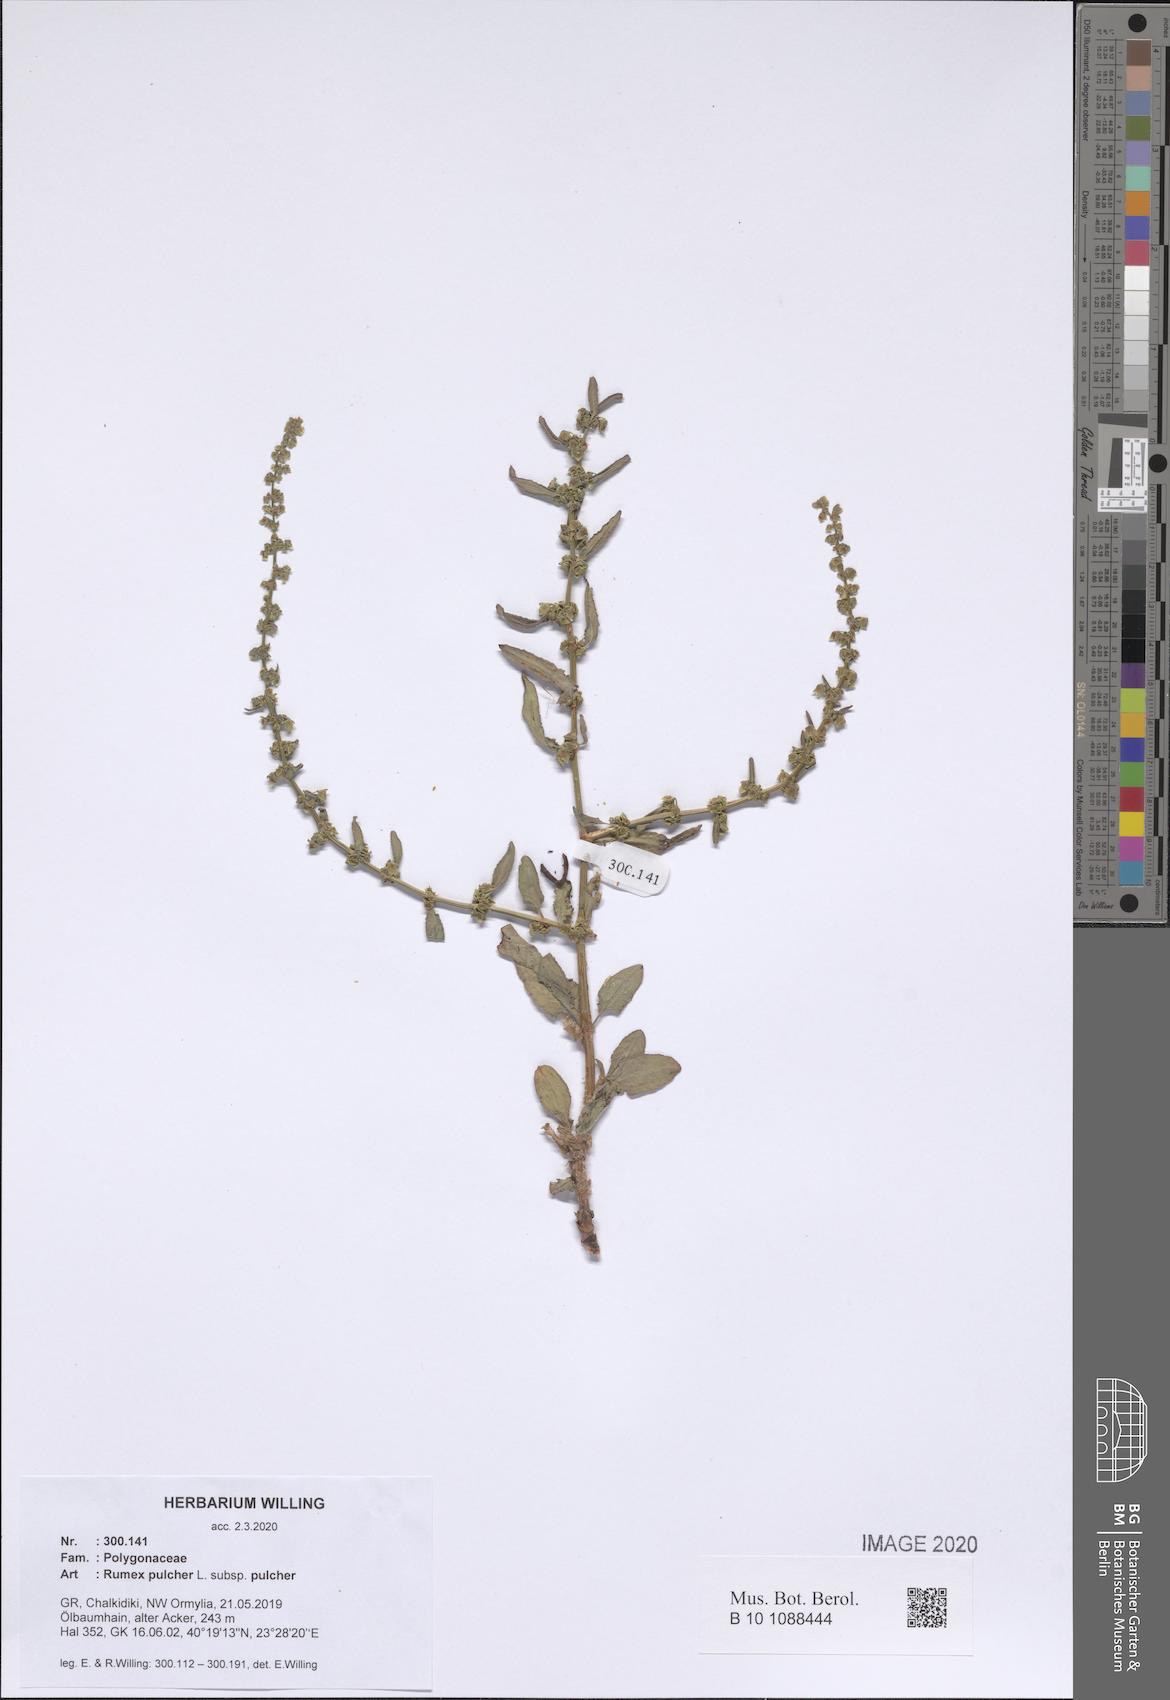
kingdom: Plantae
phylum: Tracheophyta
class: Magnoliopsida
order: Caryophyllales
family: Polygonaceae
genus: Rumex
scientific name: Rumex pulcher
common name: Fiddle dock
